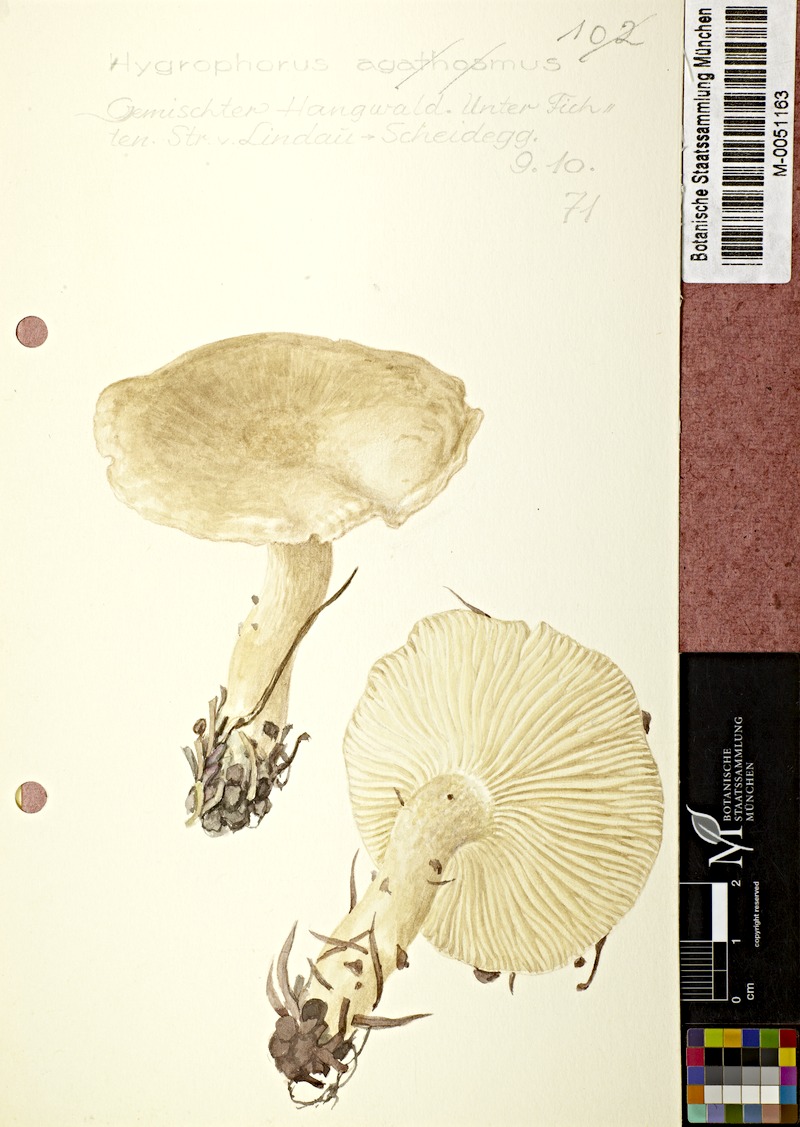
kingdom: Fungi
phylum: Basidiomycota
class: Agaricomycetes
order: Agaricales
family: Hygrophoraceae
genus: Hygrophorus
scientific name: Hygrophorus agathosmus
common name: Almond woodwax
